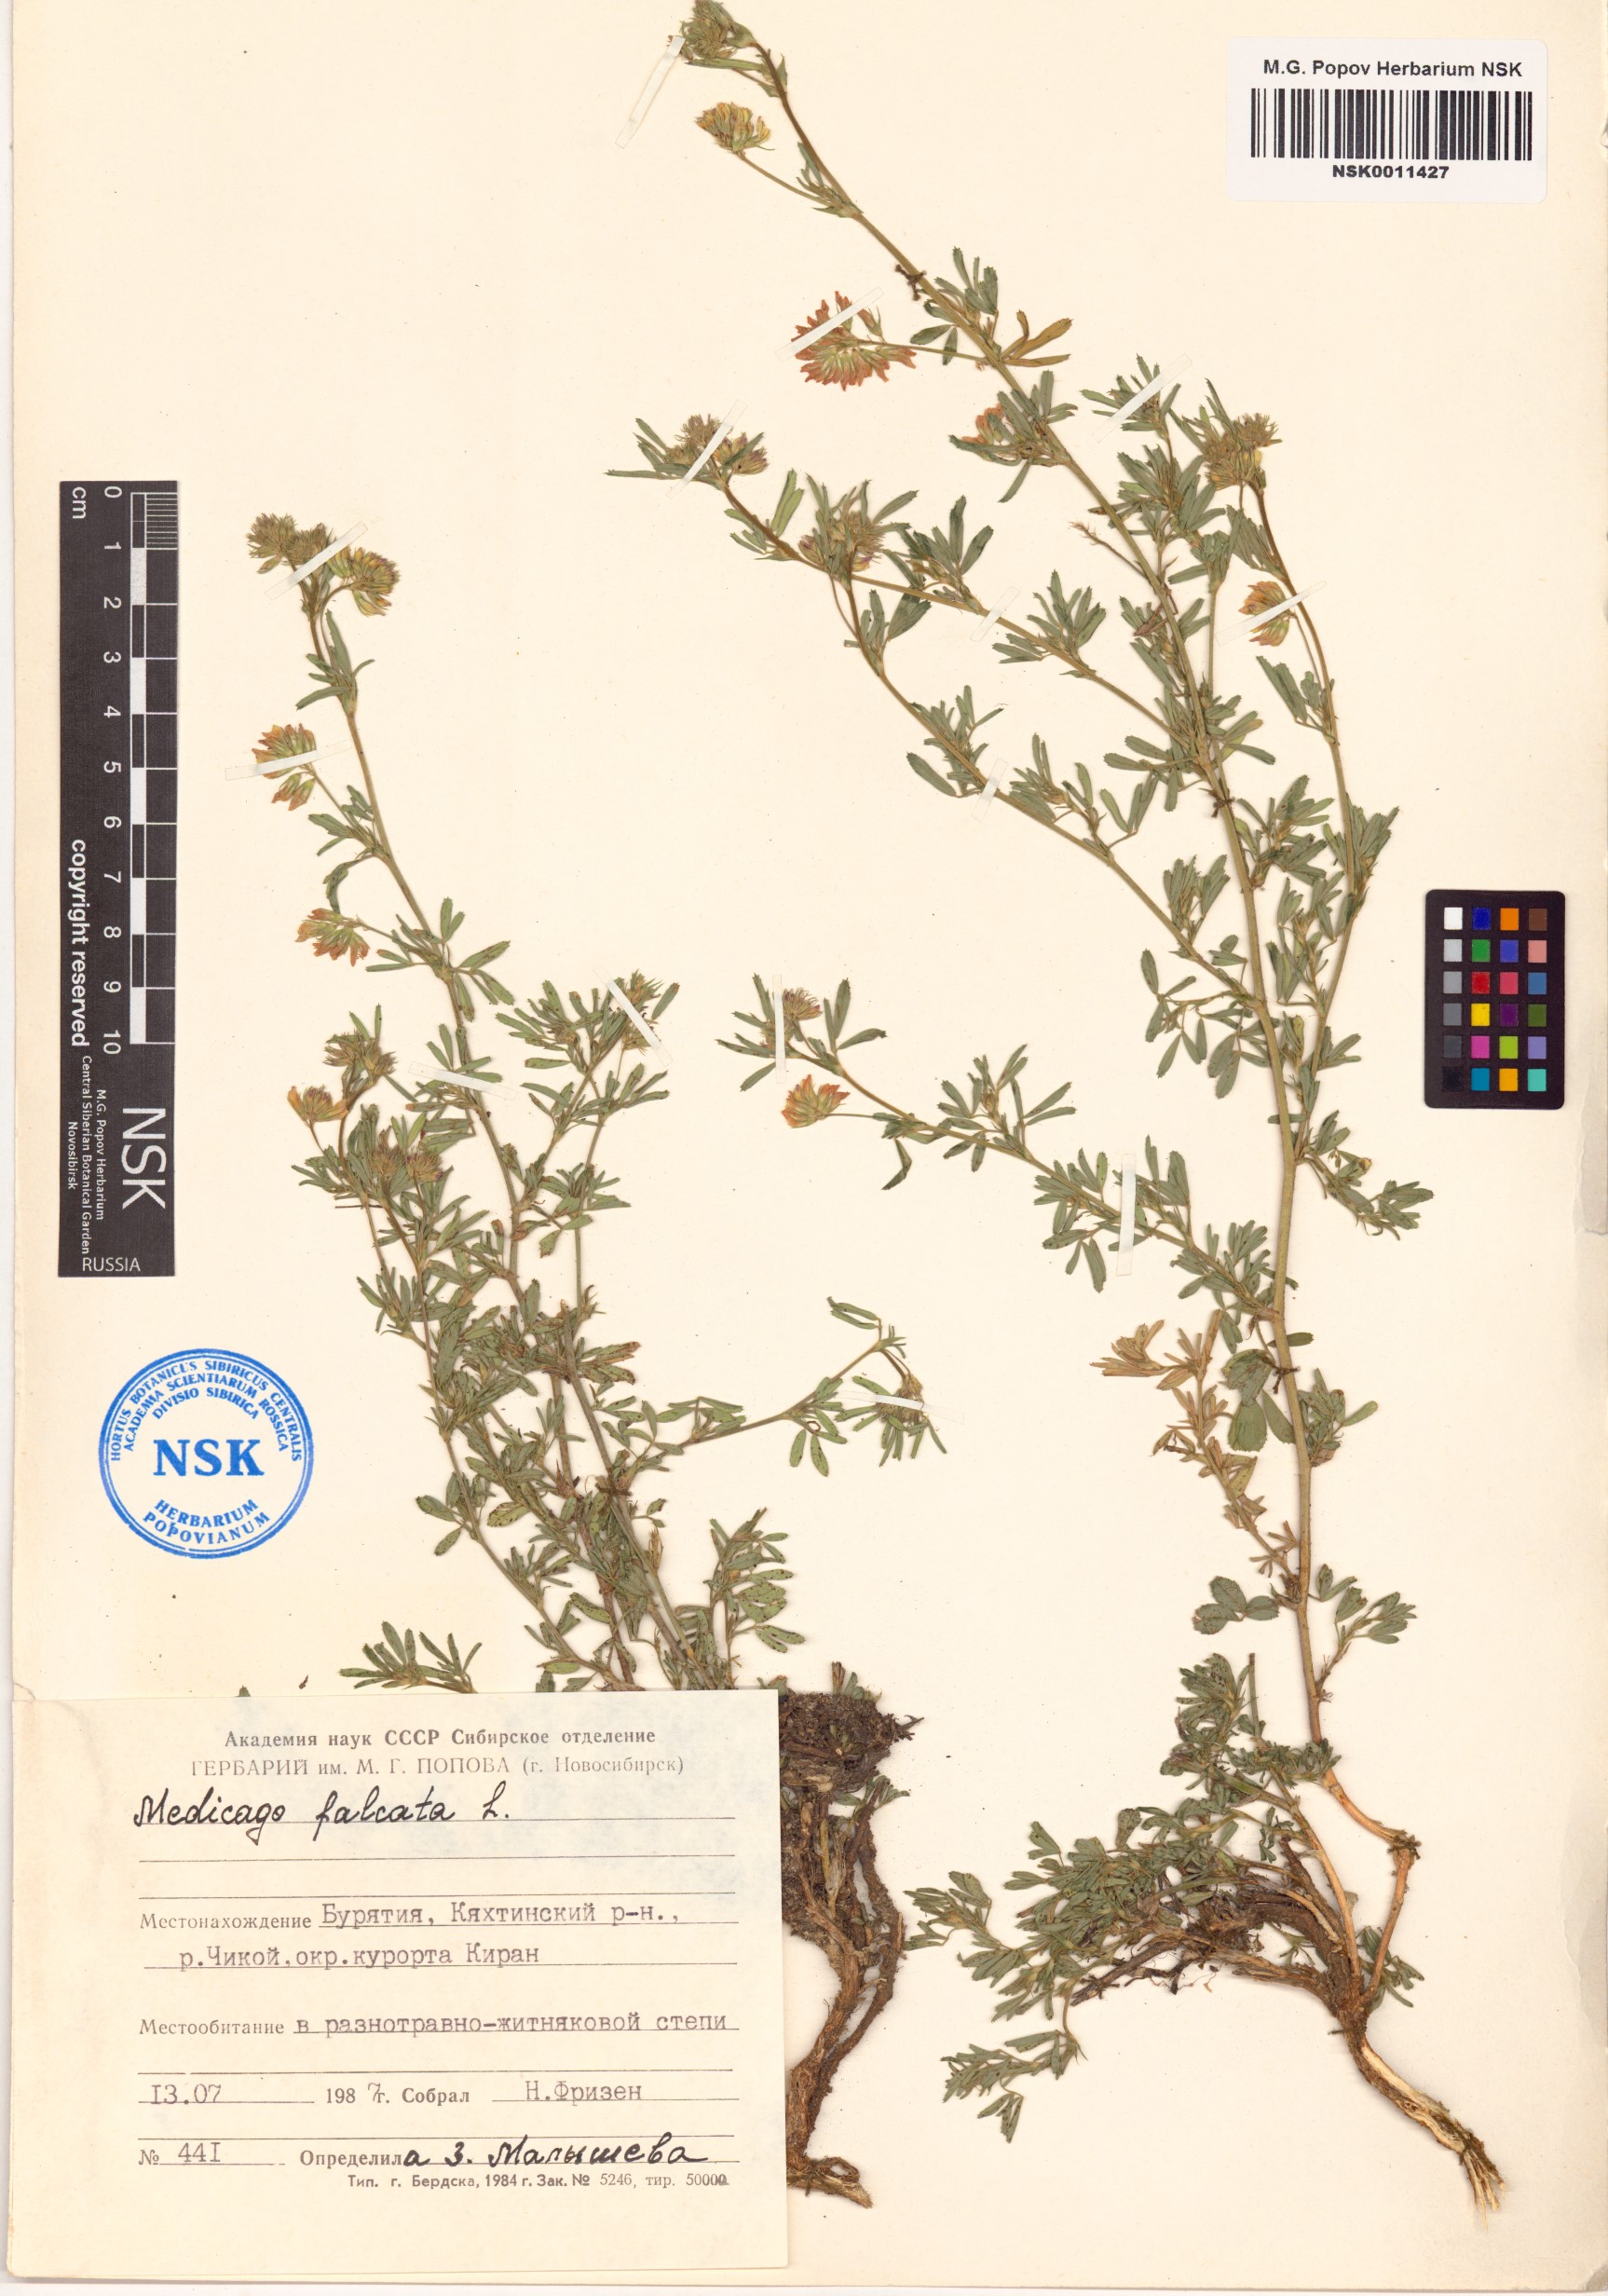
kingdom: Plantae
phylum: Tracheophyta
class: Magnoliopsida
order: Fabales
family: Fabaceae
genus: Medicago
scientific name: Medicago falcata
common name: Sickle medick
